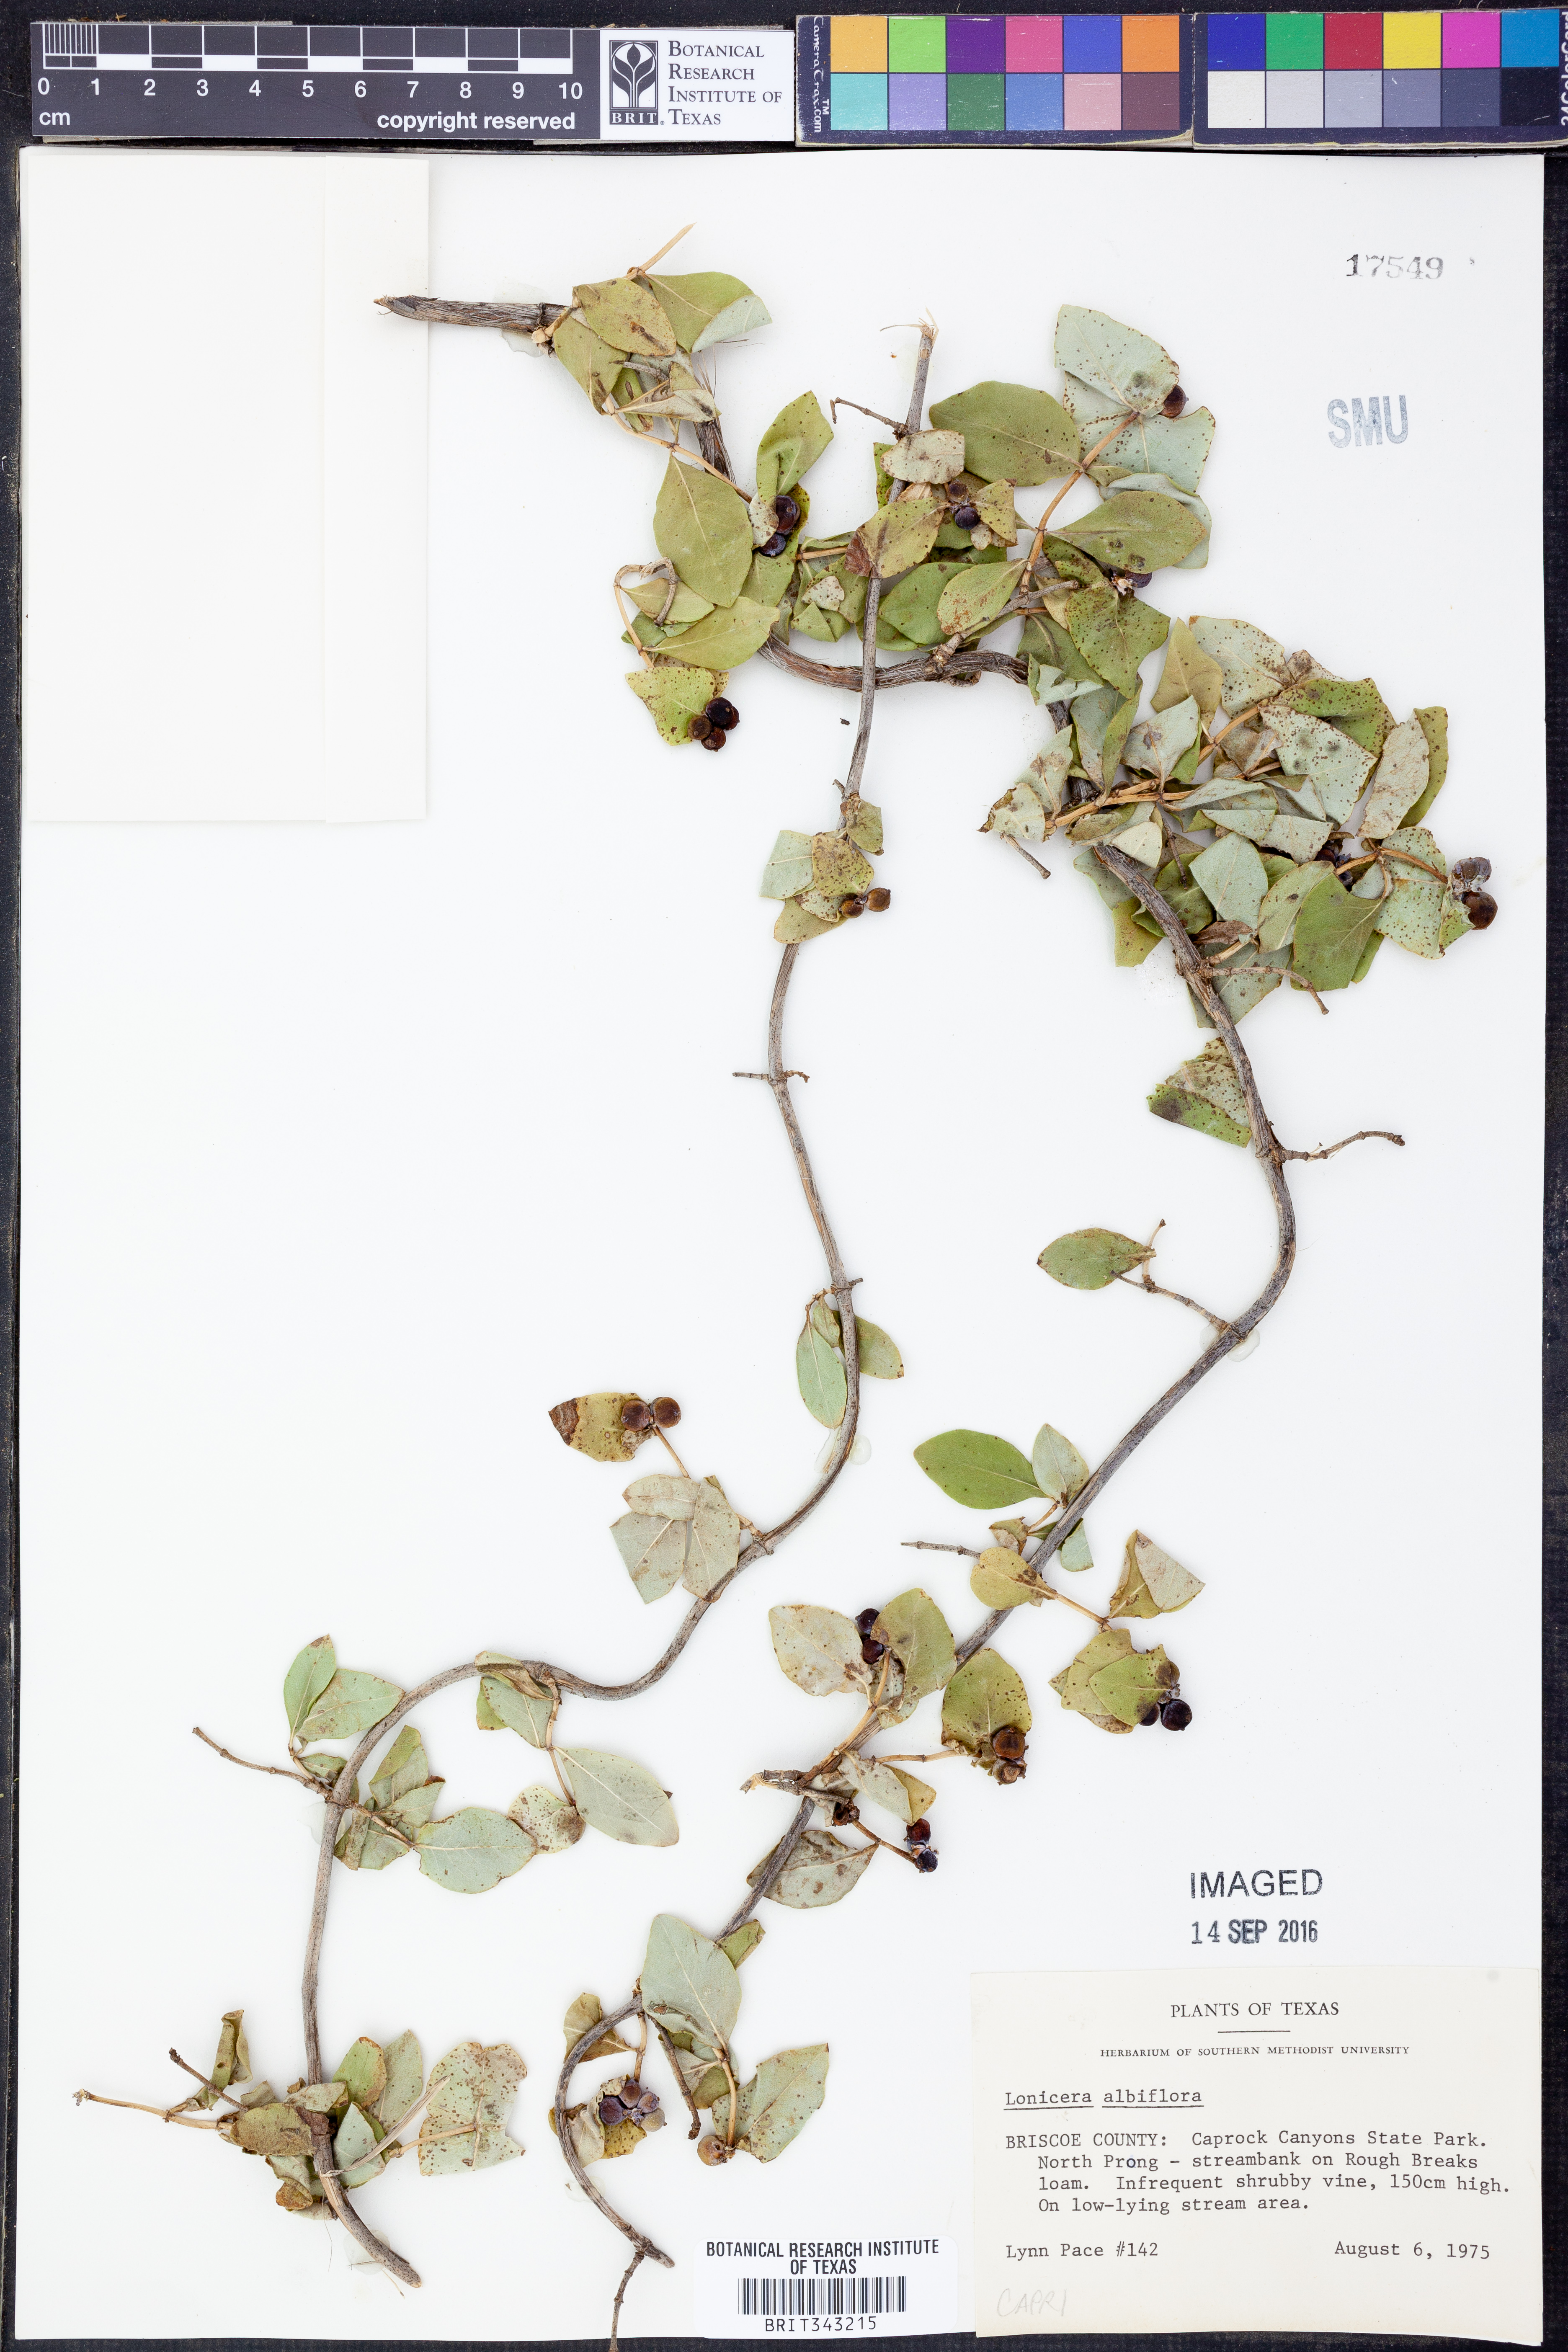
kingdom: Plantae
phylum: Tracheophyta
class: Magnoliopsida
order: Dipsacales
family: Caprifoliaceae
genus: Lonicera
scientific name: Lonicera albiflora
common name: White honeysuckle
